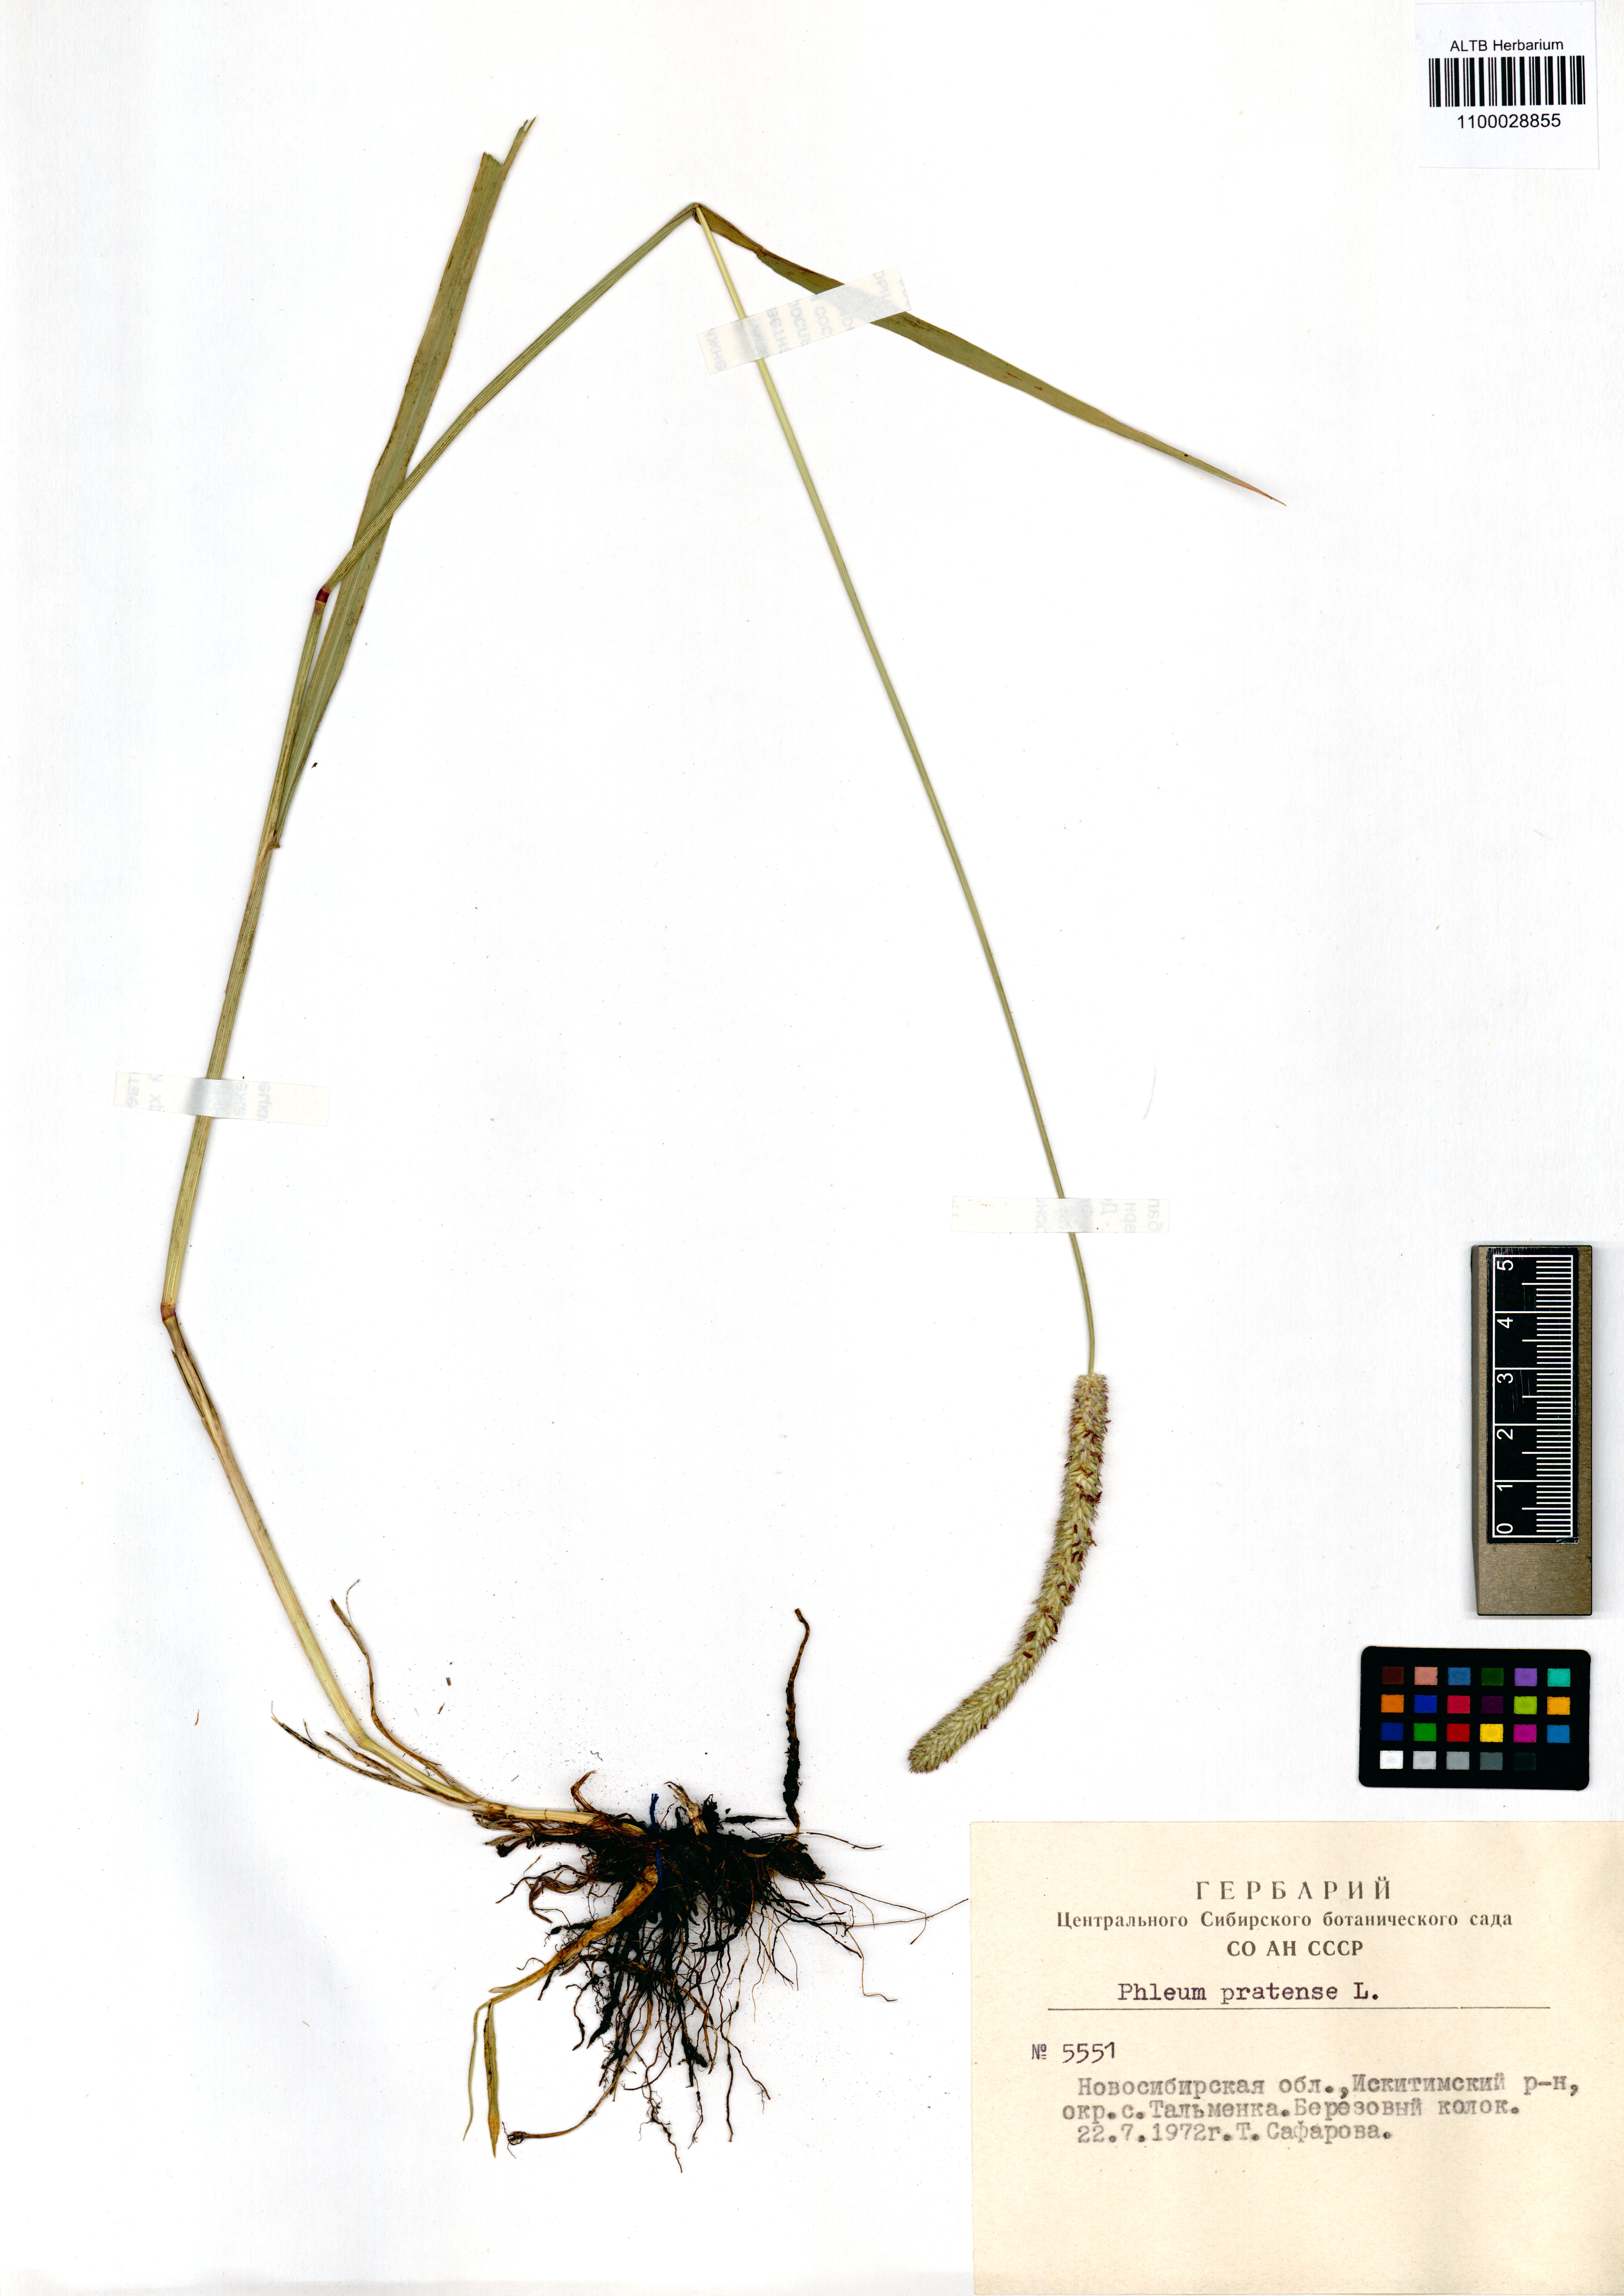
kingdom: Plantae
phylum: Tracheophyta
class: Liliopsida
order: Poales
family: Poaceae
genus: Phleum
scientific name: Phleum pratense
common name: Timothy grass
